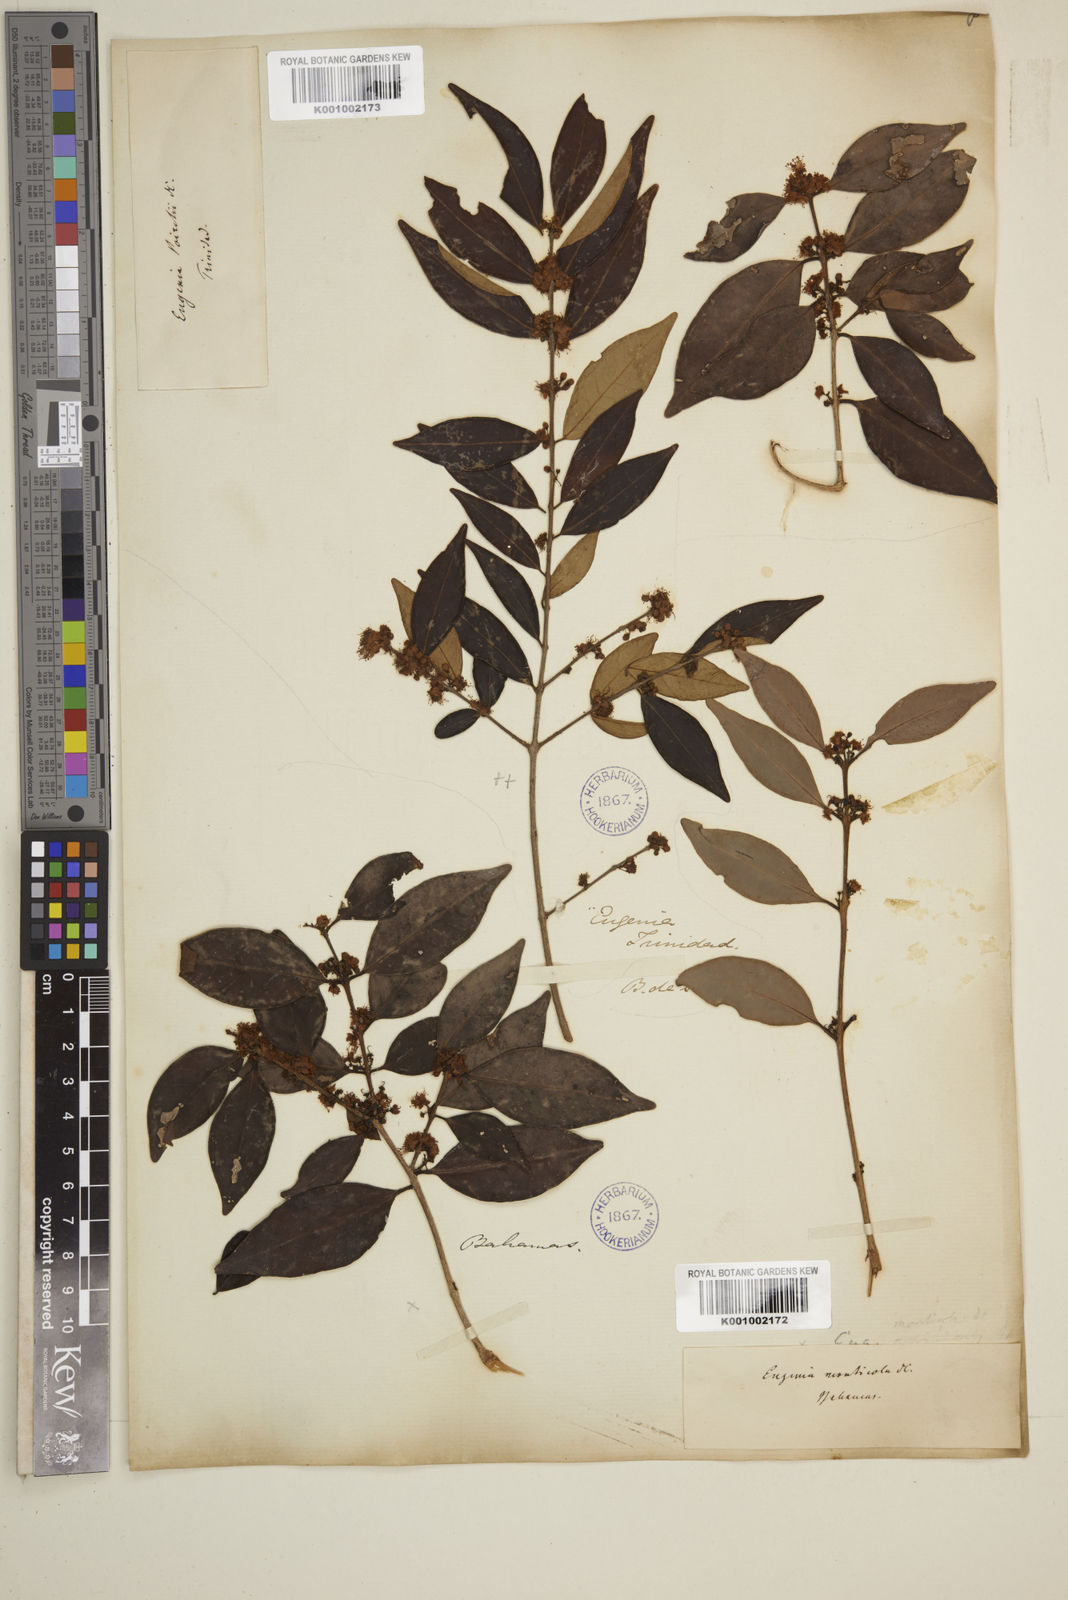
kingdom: Plantae
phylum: Tracheophyta
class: Magnoliopsida
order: Myrtales
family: Myrtaceae
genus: Eugenia
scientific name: Eugenia monticola
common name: Birds berry
